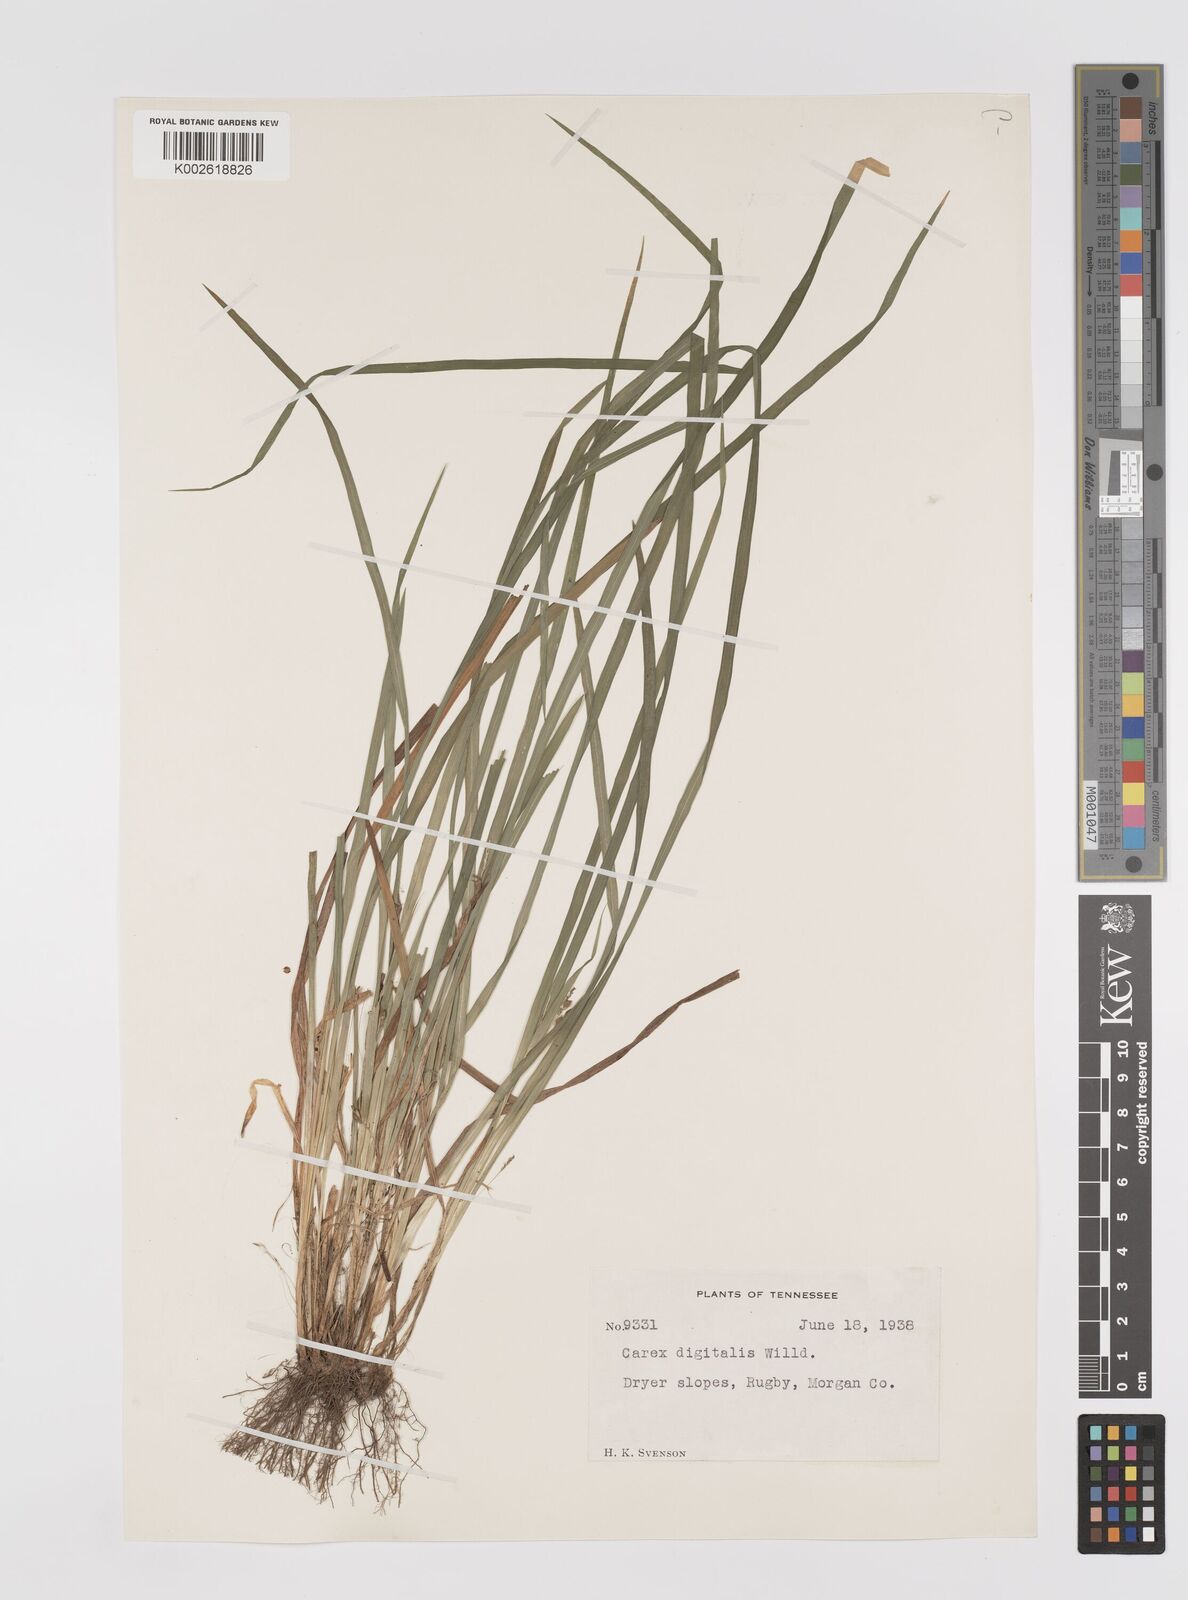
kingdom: Plantae
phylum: Tracheophyta
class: Liliopsida
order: Poales
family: Cyperaceae
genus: Carex
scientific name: Carex digitalis
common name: Slender wood sedge
